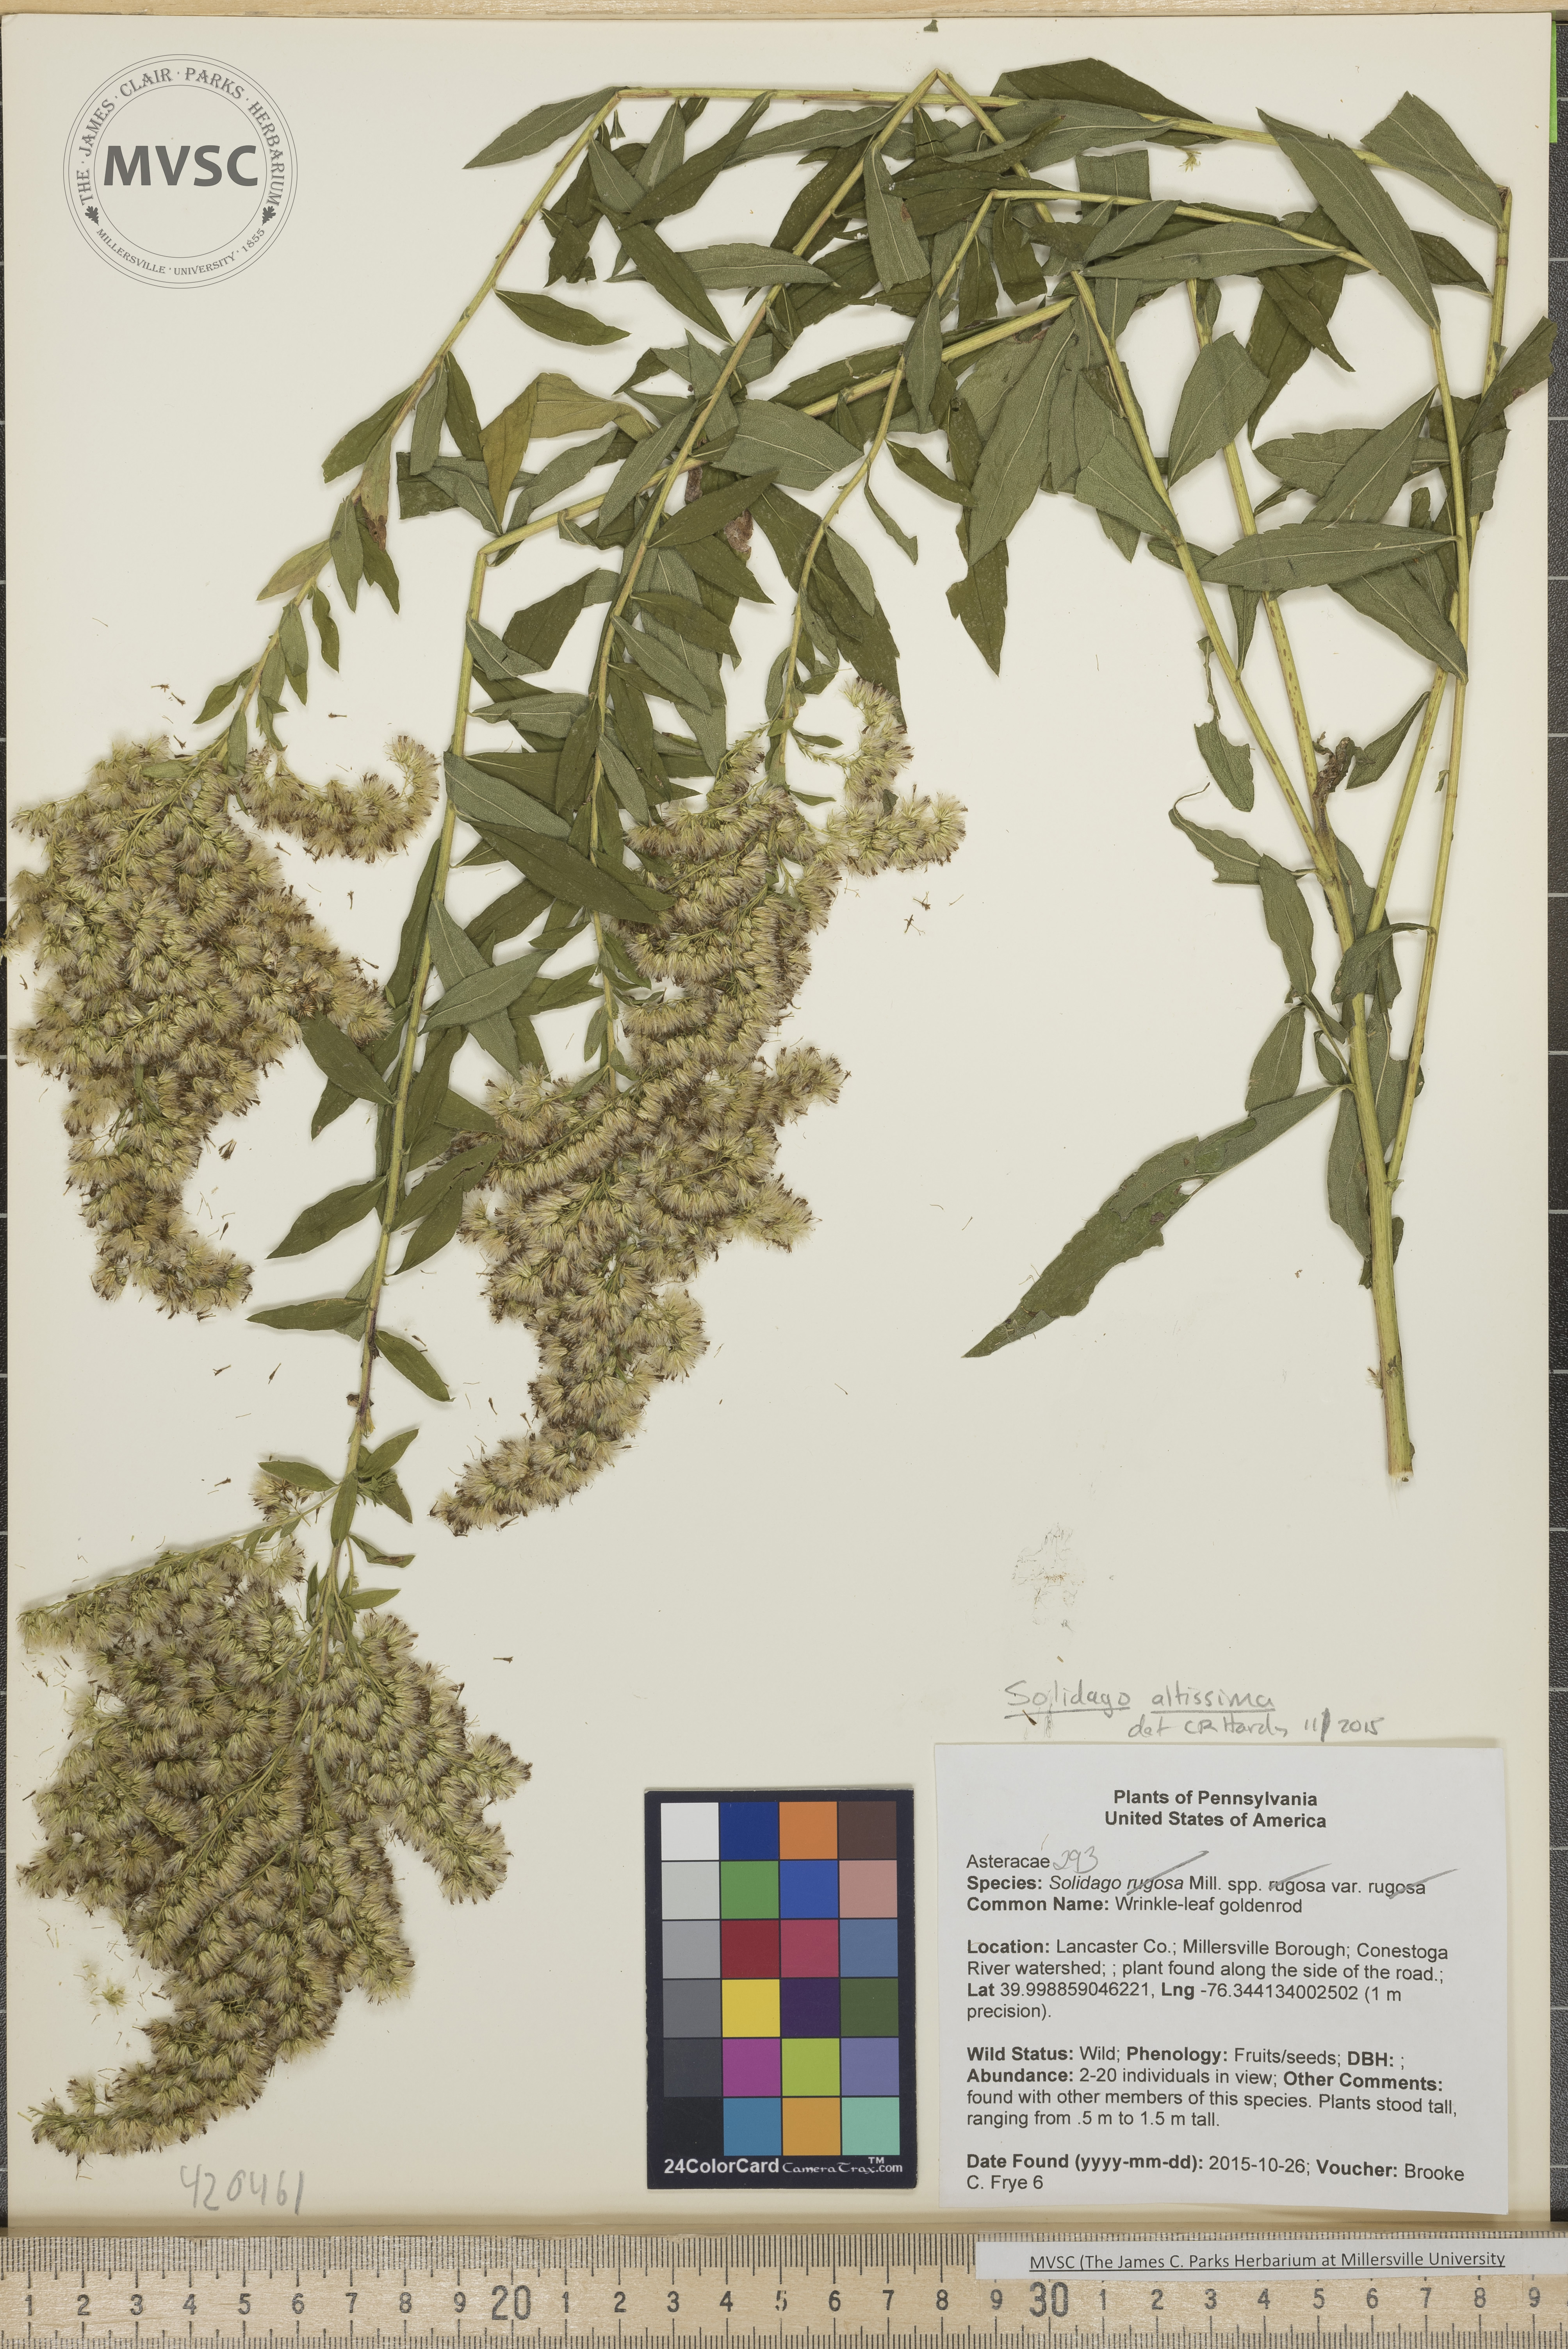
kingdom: Plantae
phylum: Tracheophyta
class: Magnoliopsida
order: Asterales
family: Asteraceae
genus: Solidago
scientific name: Solidago altissima
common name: Late goldenrod
